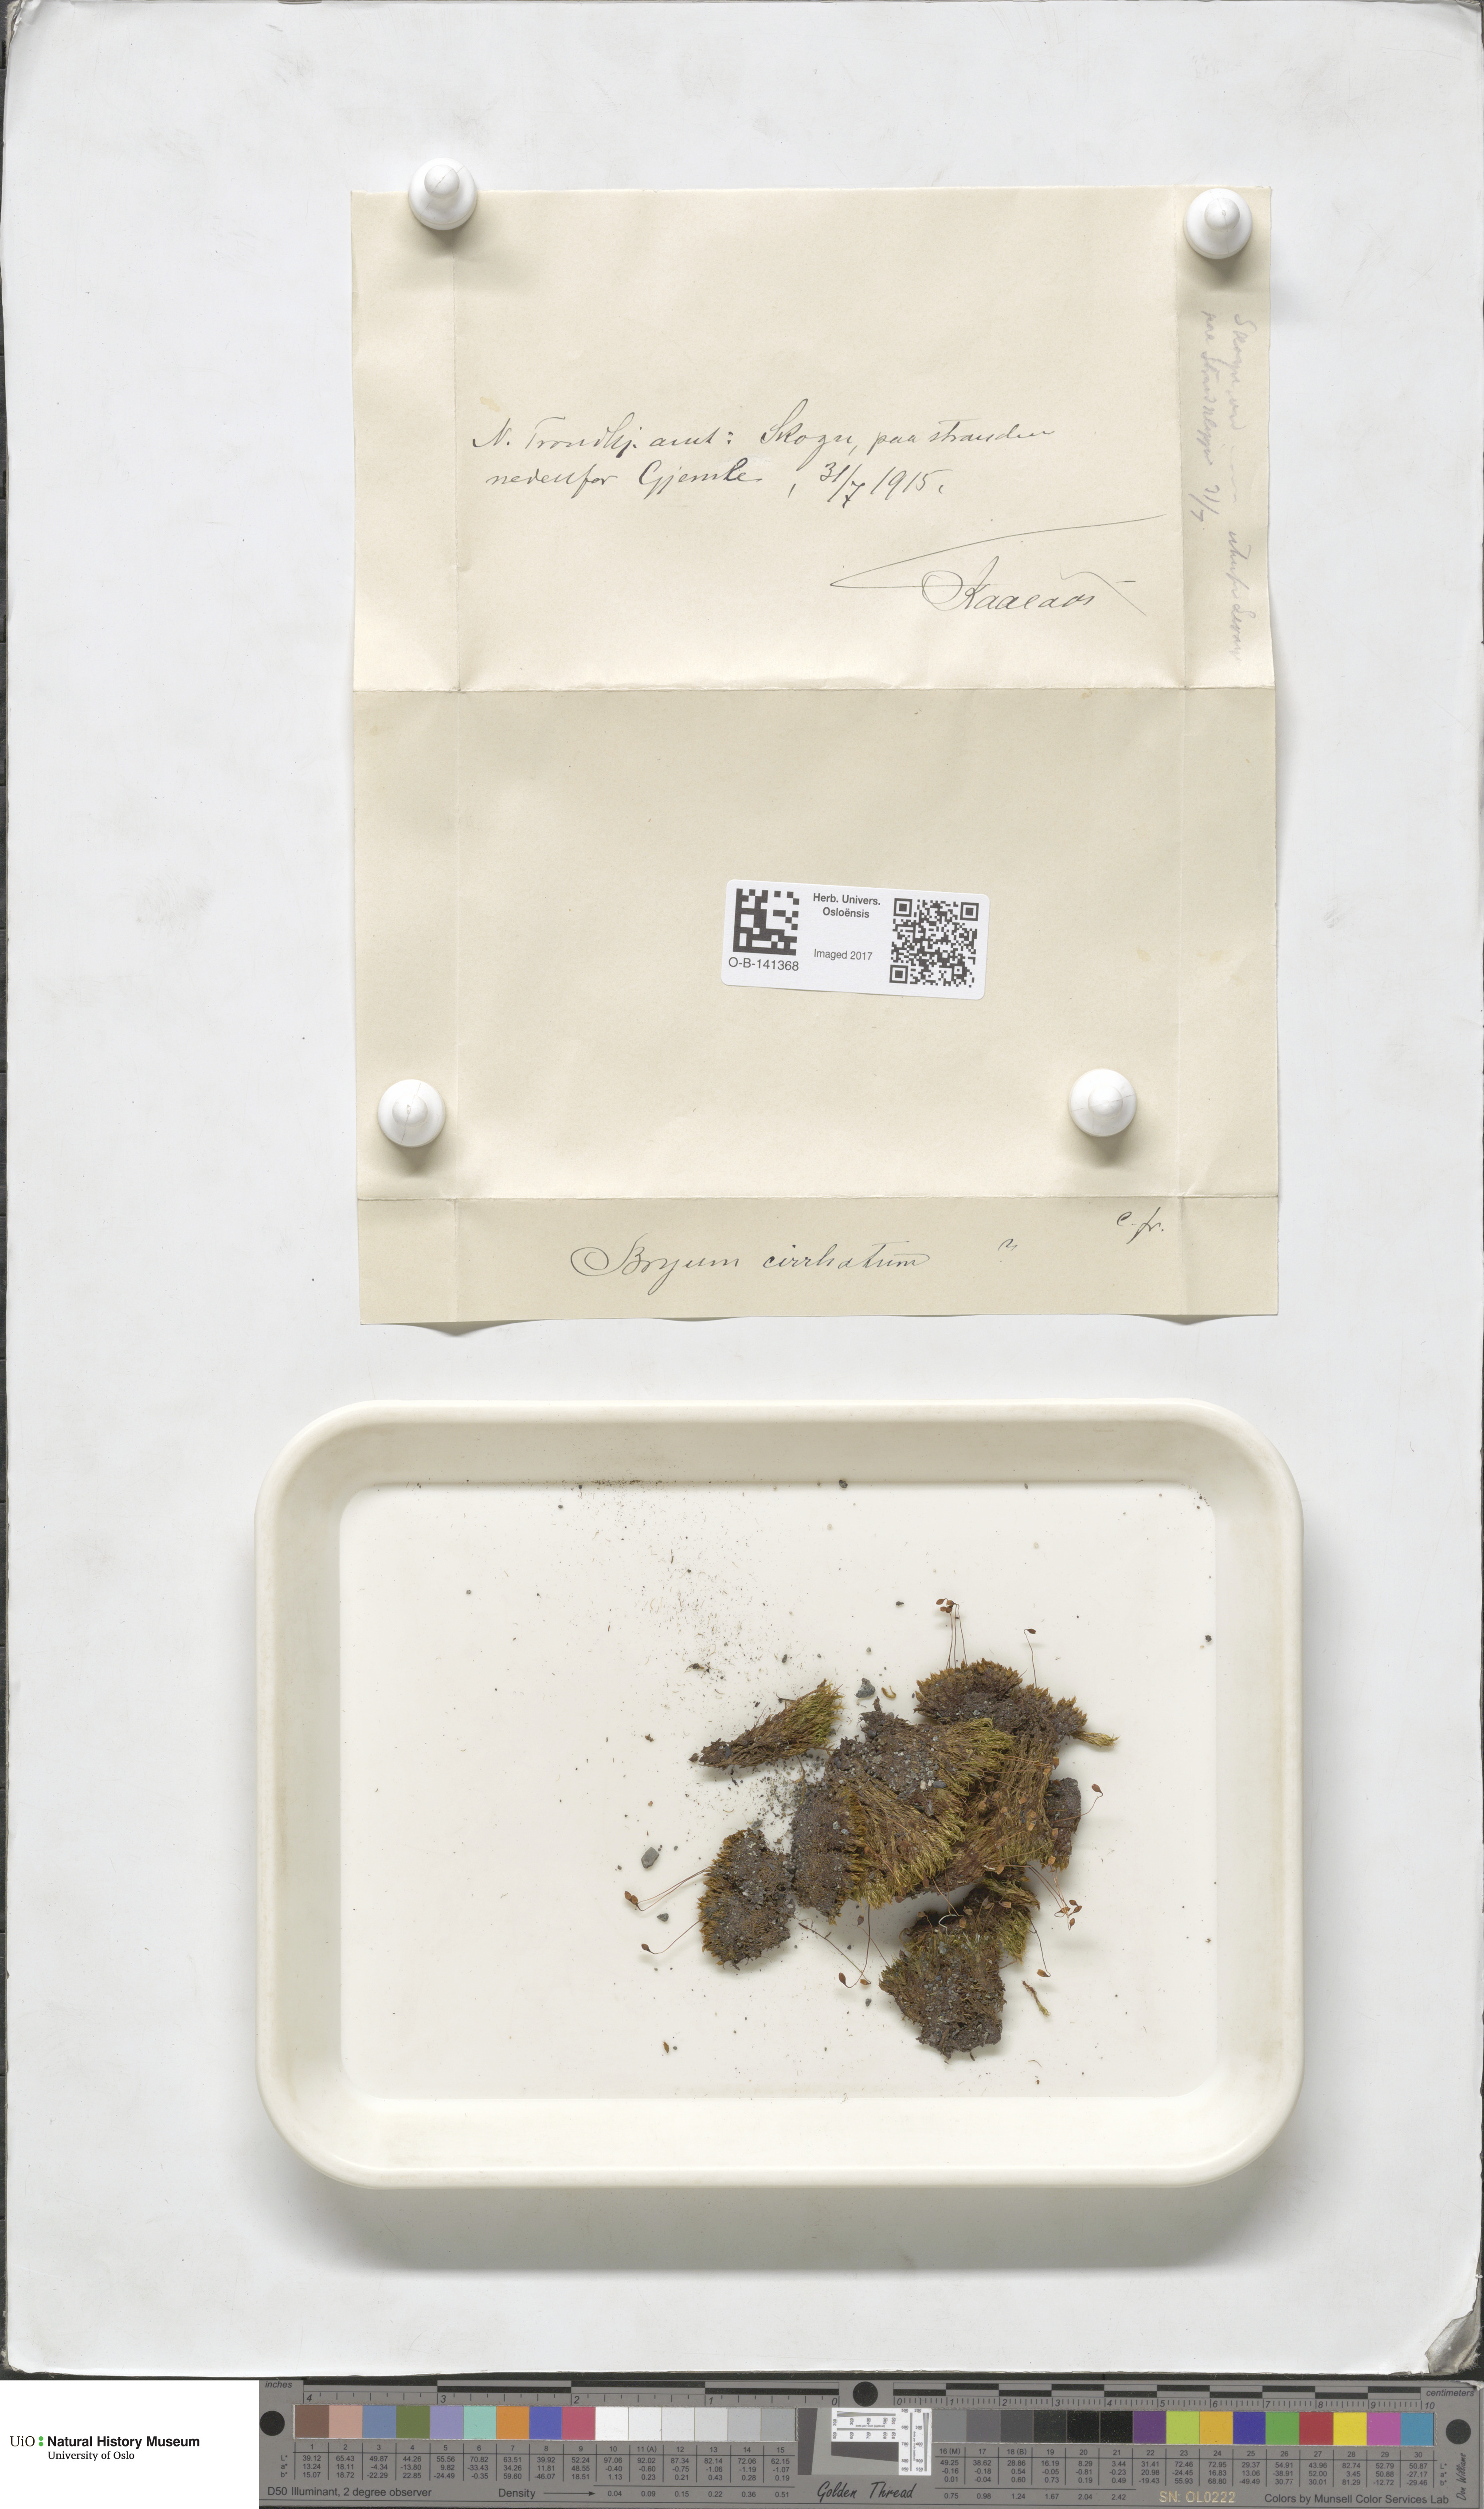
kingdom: Plantae
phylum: Bryophyta
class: Bryopsida
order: Bryales
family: Bryaceae
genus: Ptychostomum
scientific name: Ptychostomum pallescens
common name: Tall-clustered thread-moss
